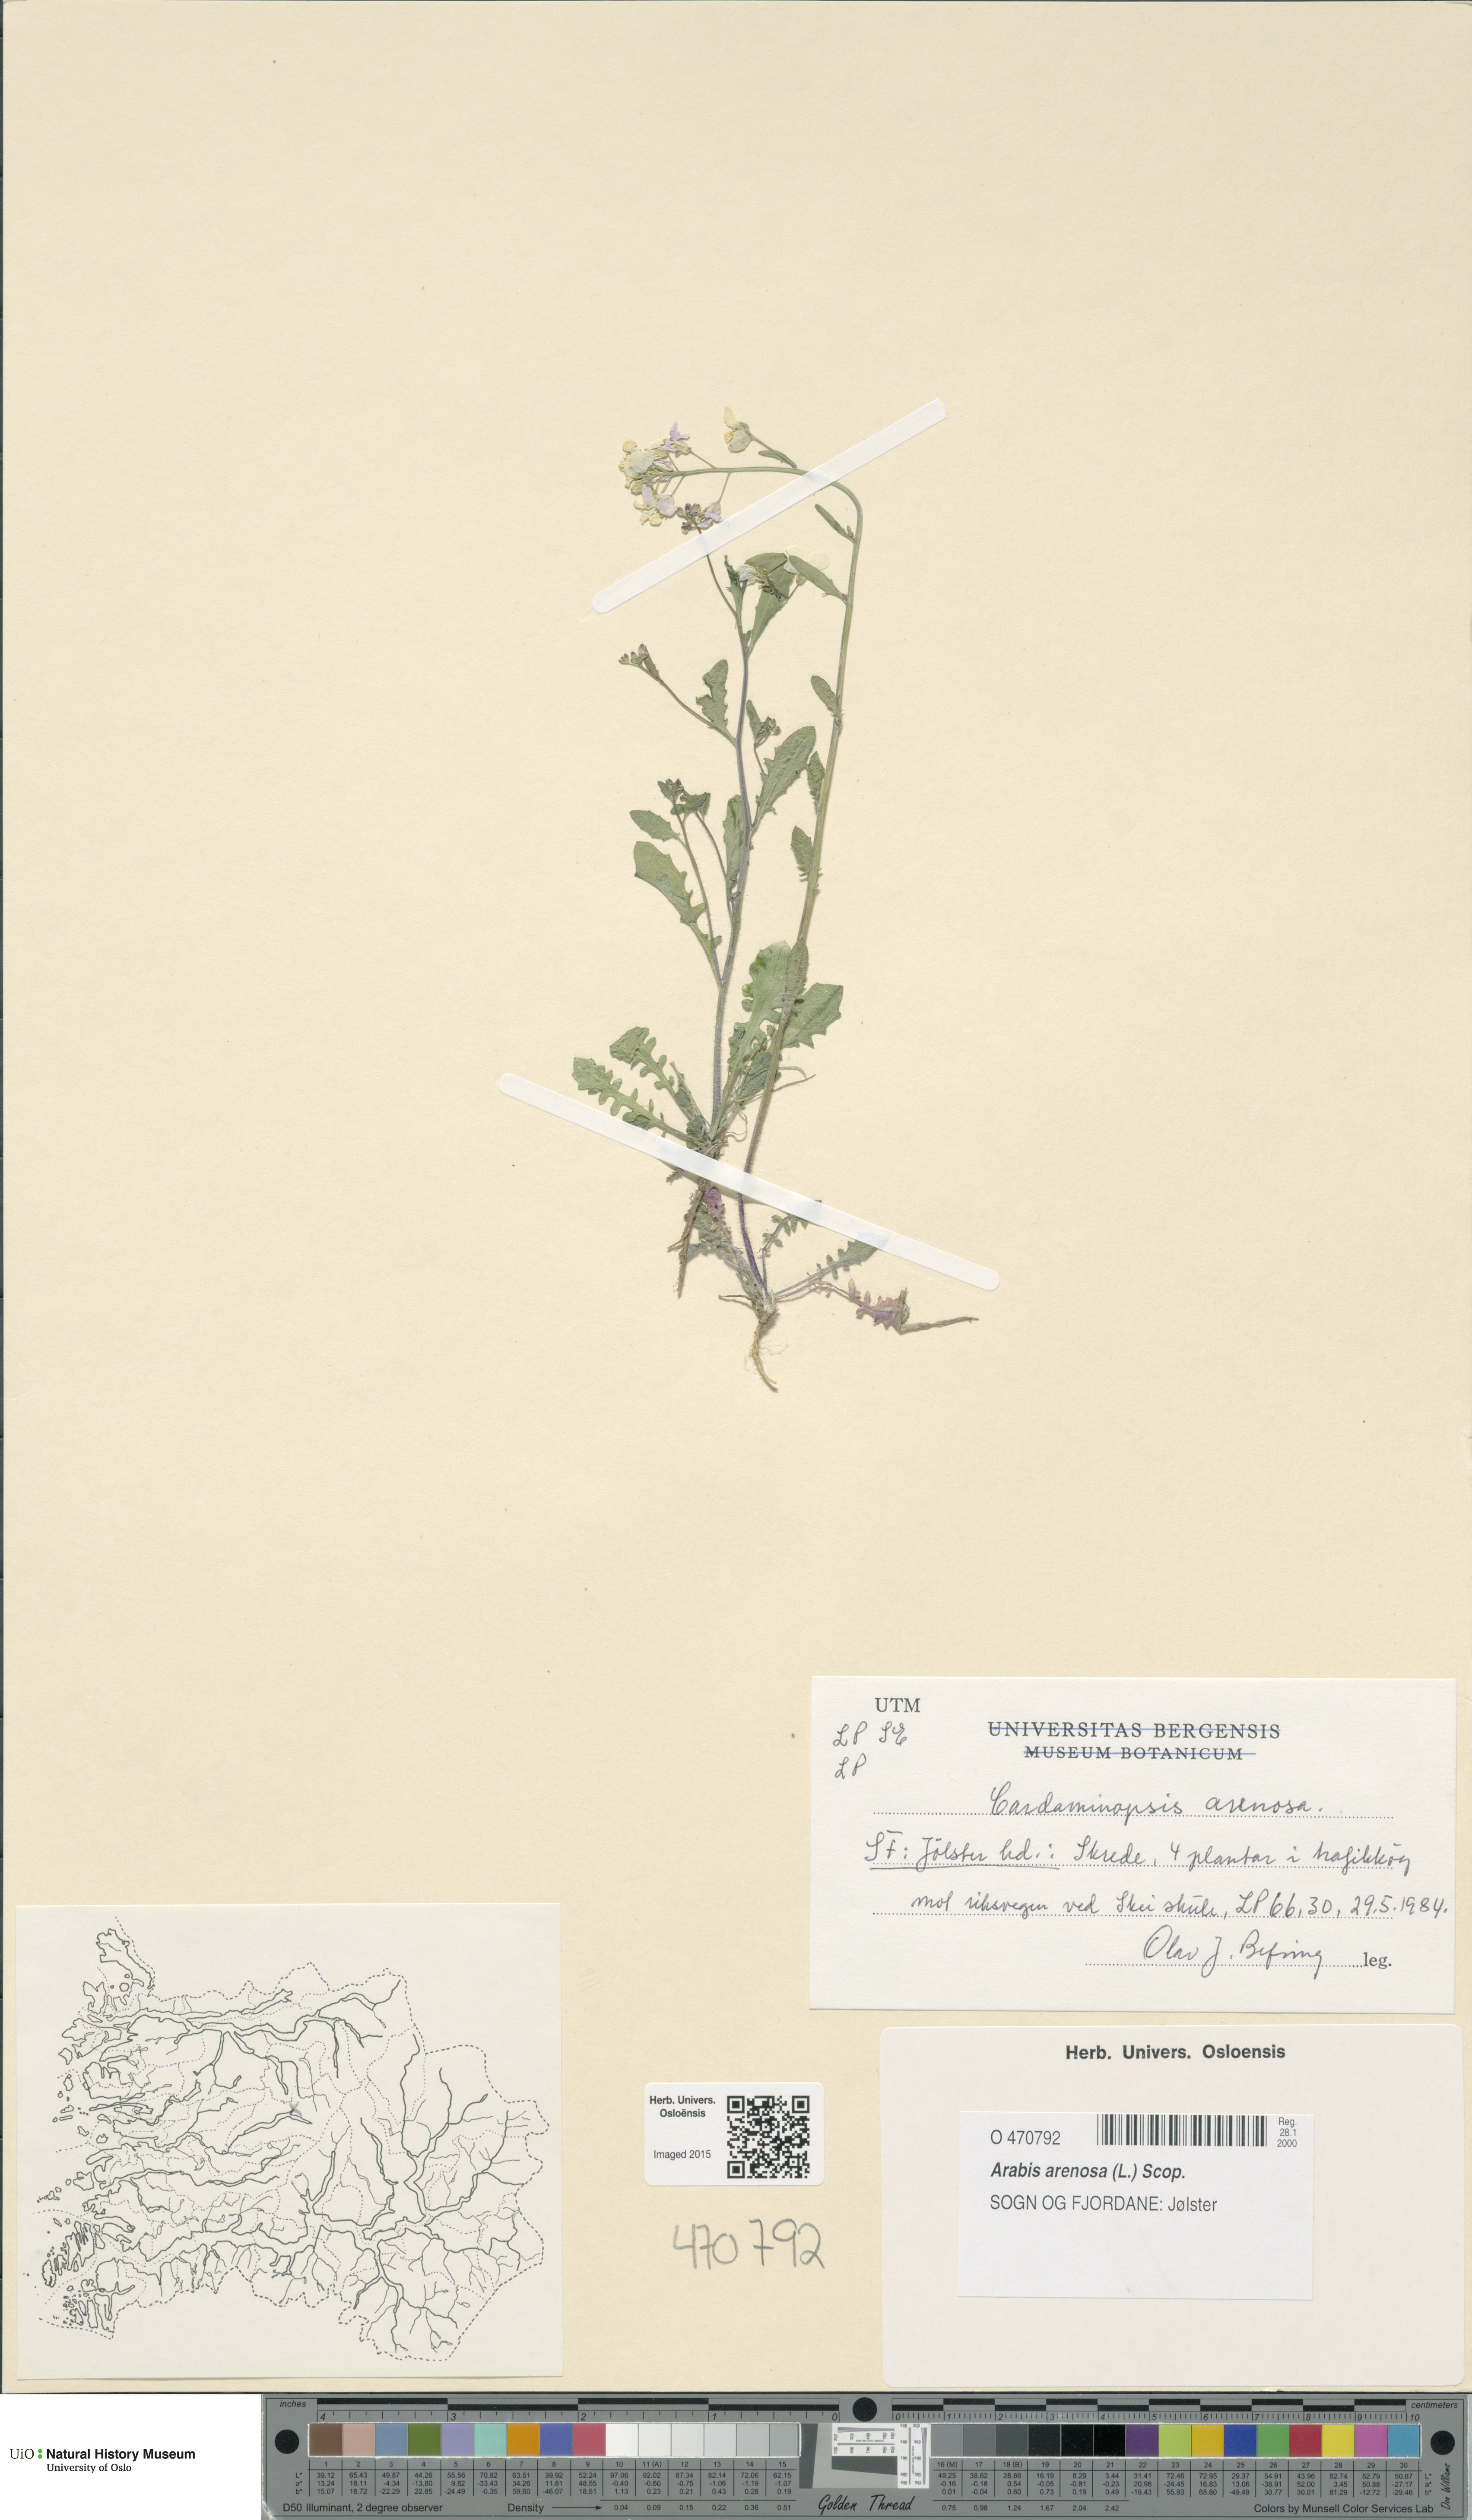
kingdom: Plantae
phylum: Tracheophyta
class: Magnoliopsida
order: Brassicales
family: Brassicaceae
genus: Arabidopsis
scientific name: Arabidopsis arenosa
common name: Sand rock-cress
